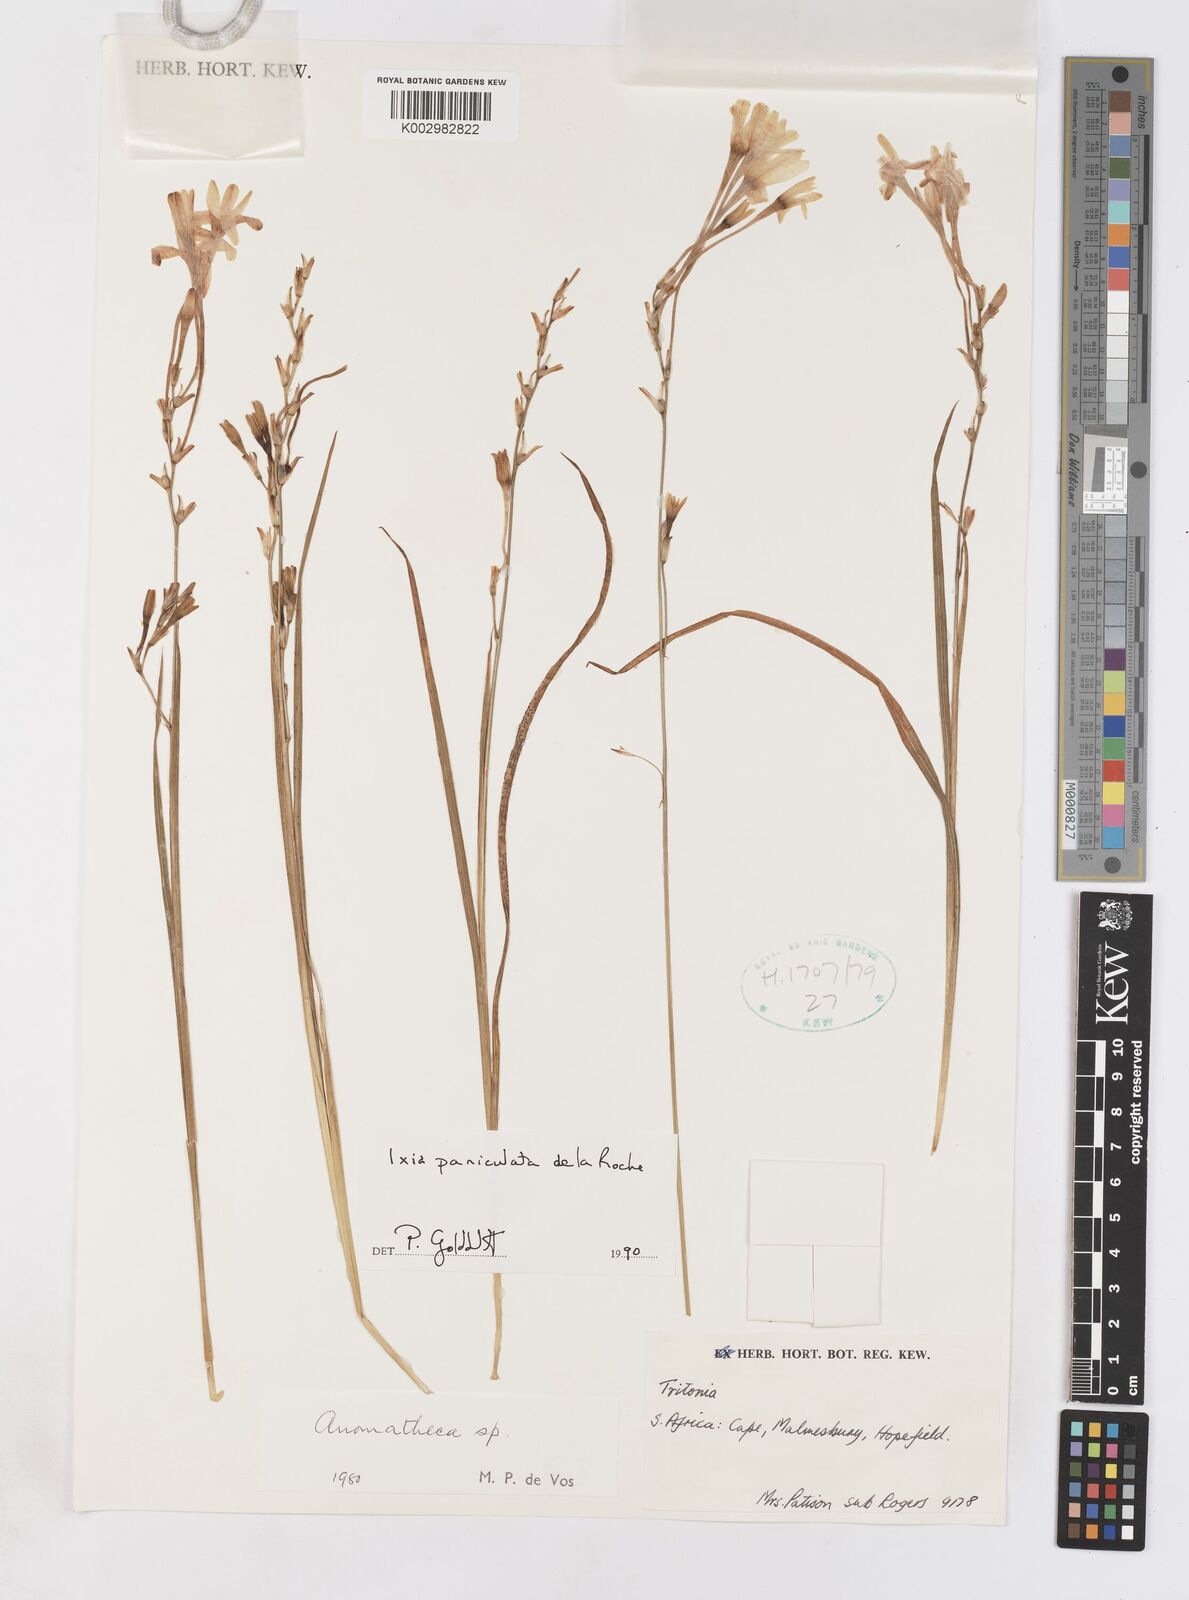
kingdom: Plantae
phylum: Tracheophyta
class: Liliopsida
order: Asparagales
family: Iridaceae
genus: Ixia
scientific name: Ixia paniculata
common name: Tubular corn-lily
